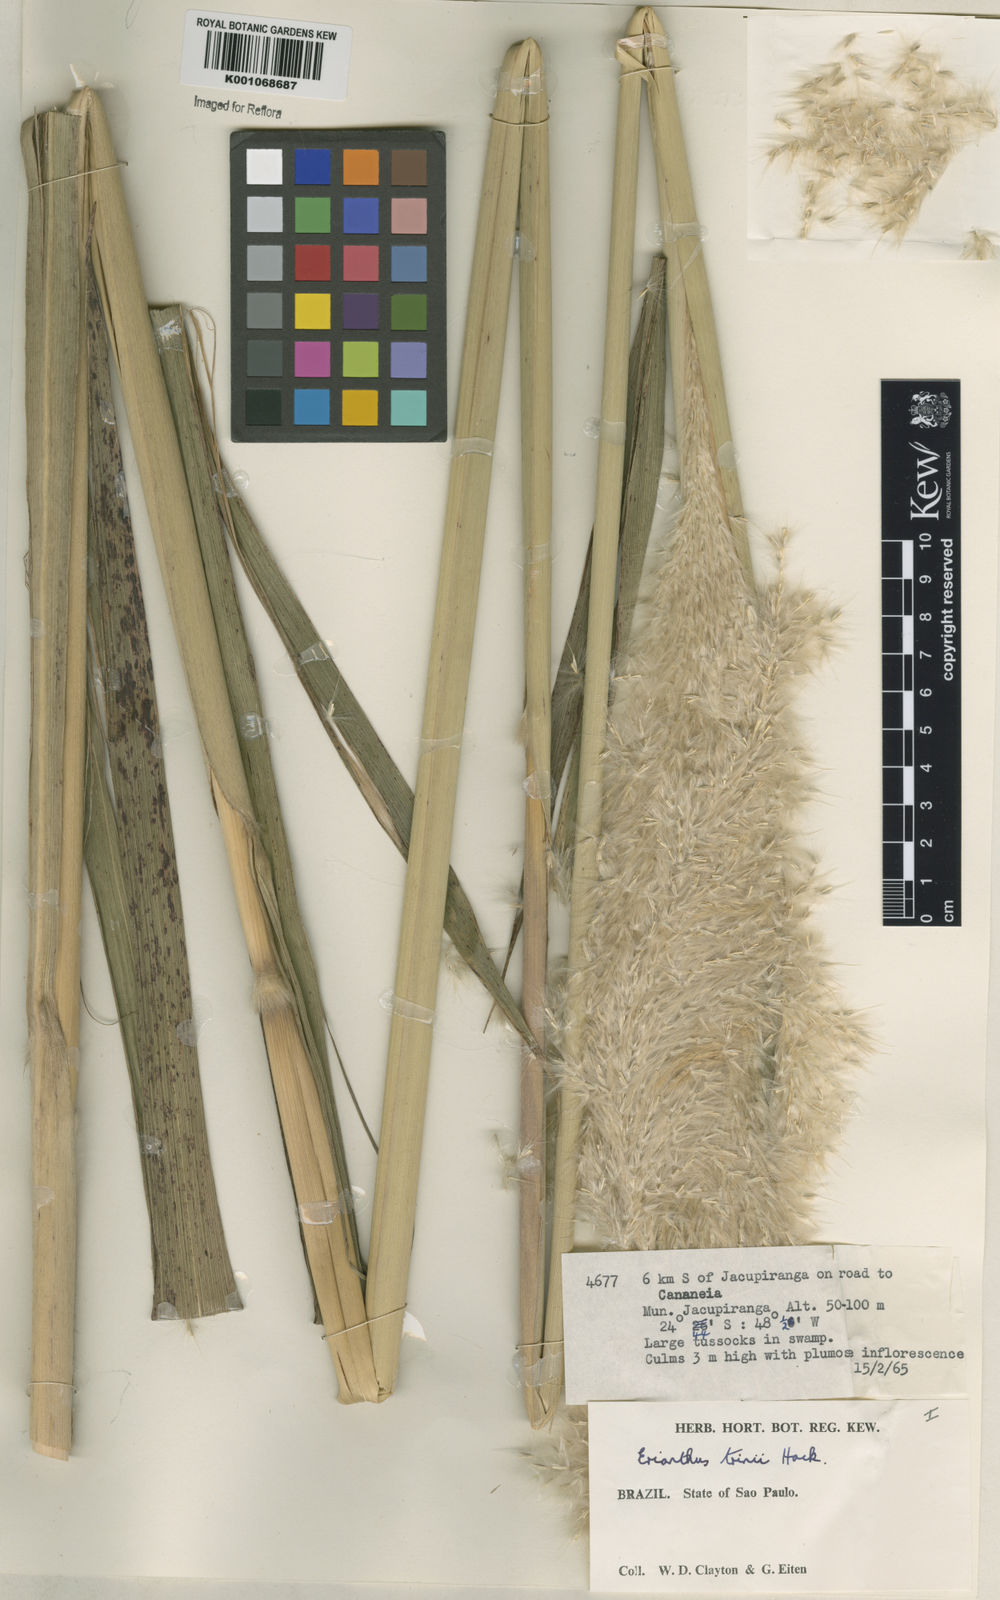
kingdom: Plantae
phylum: Tracheophyta
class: Liliopsida
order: Poales
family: Poaceae
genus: Erianthus
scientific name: Erianthus asper
